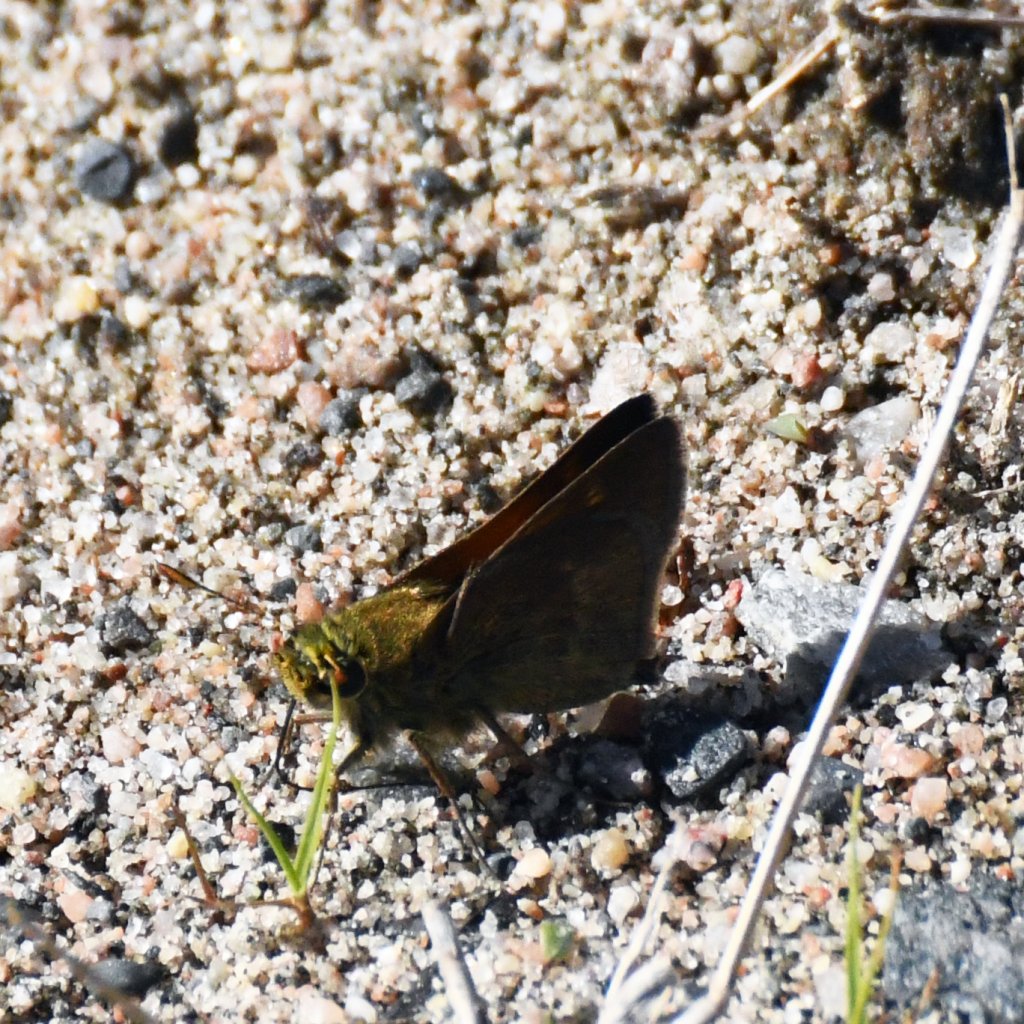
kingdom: Animalia
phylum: Arthropoda
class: Insecta
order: Lepidoptera
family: Hesperiidae
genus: Polites
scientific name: Polites themistocles
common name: Tawny-edged Skipper
